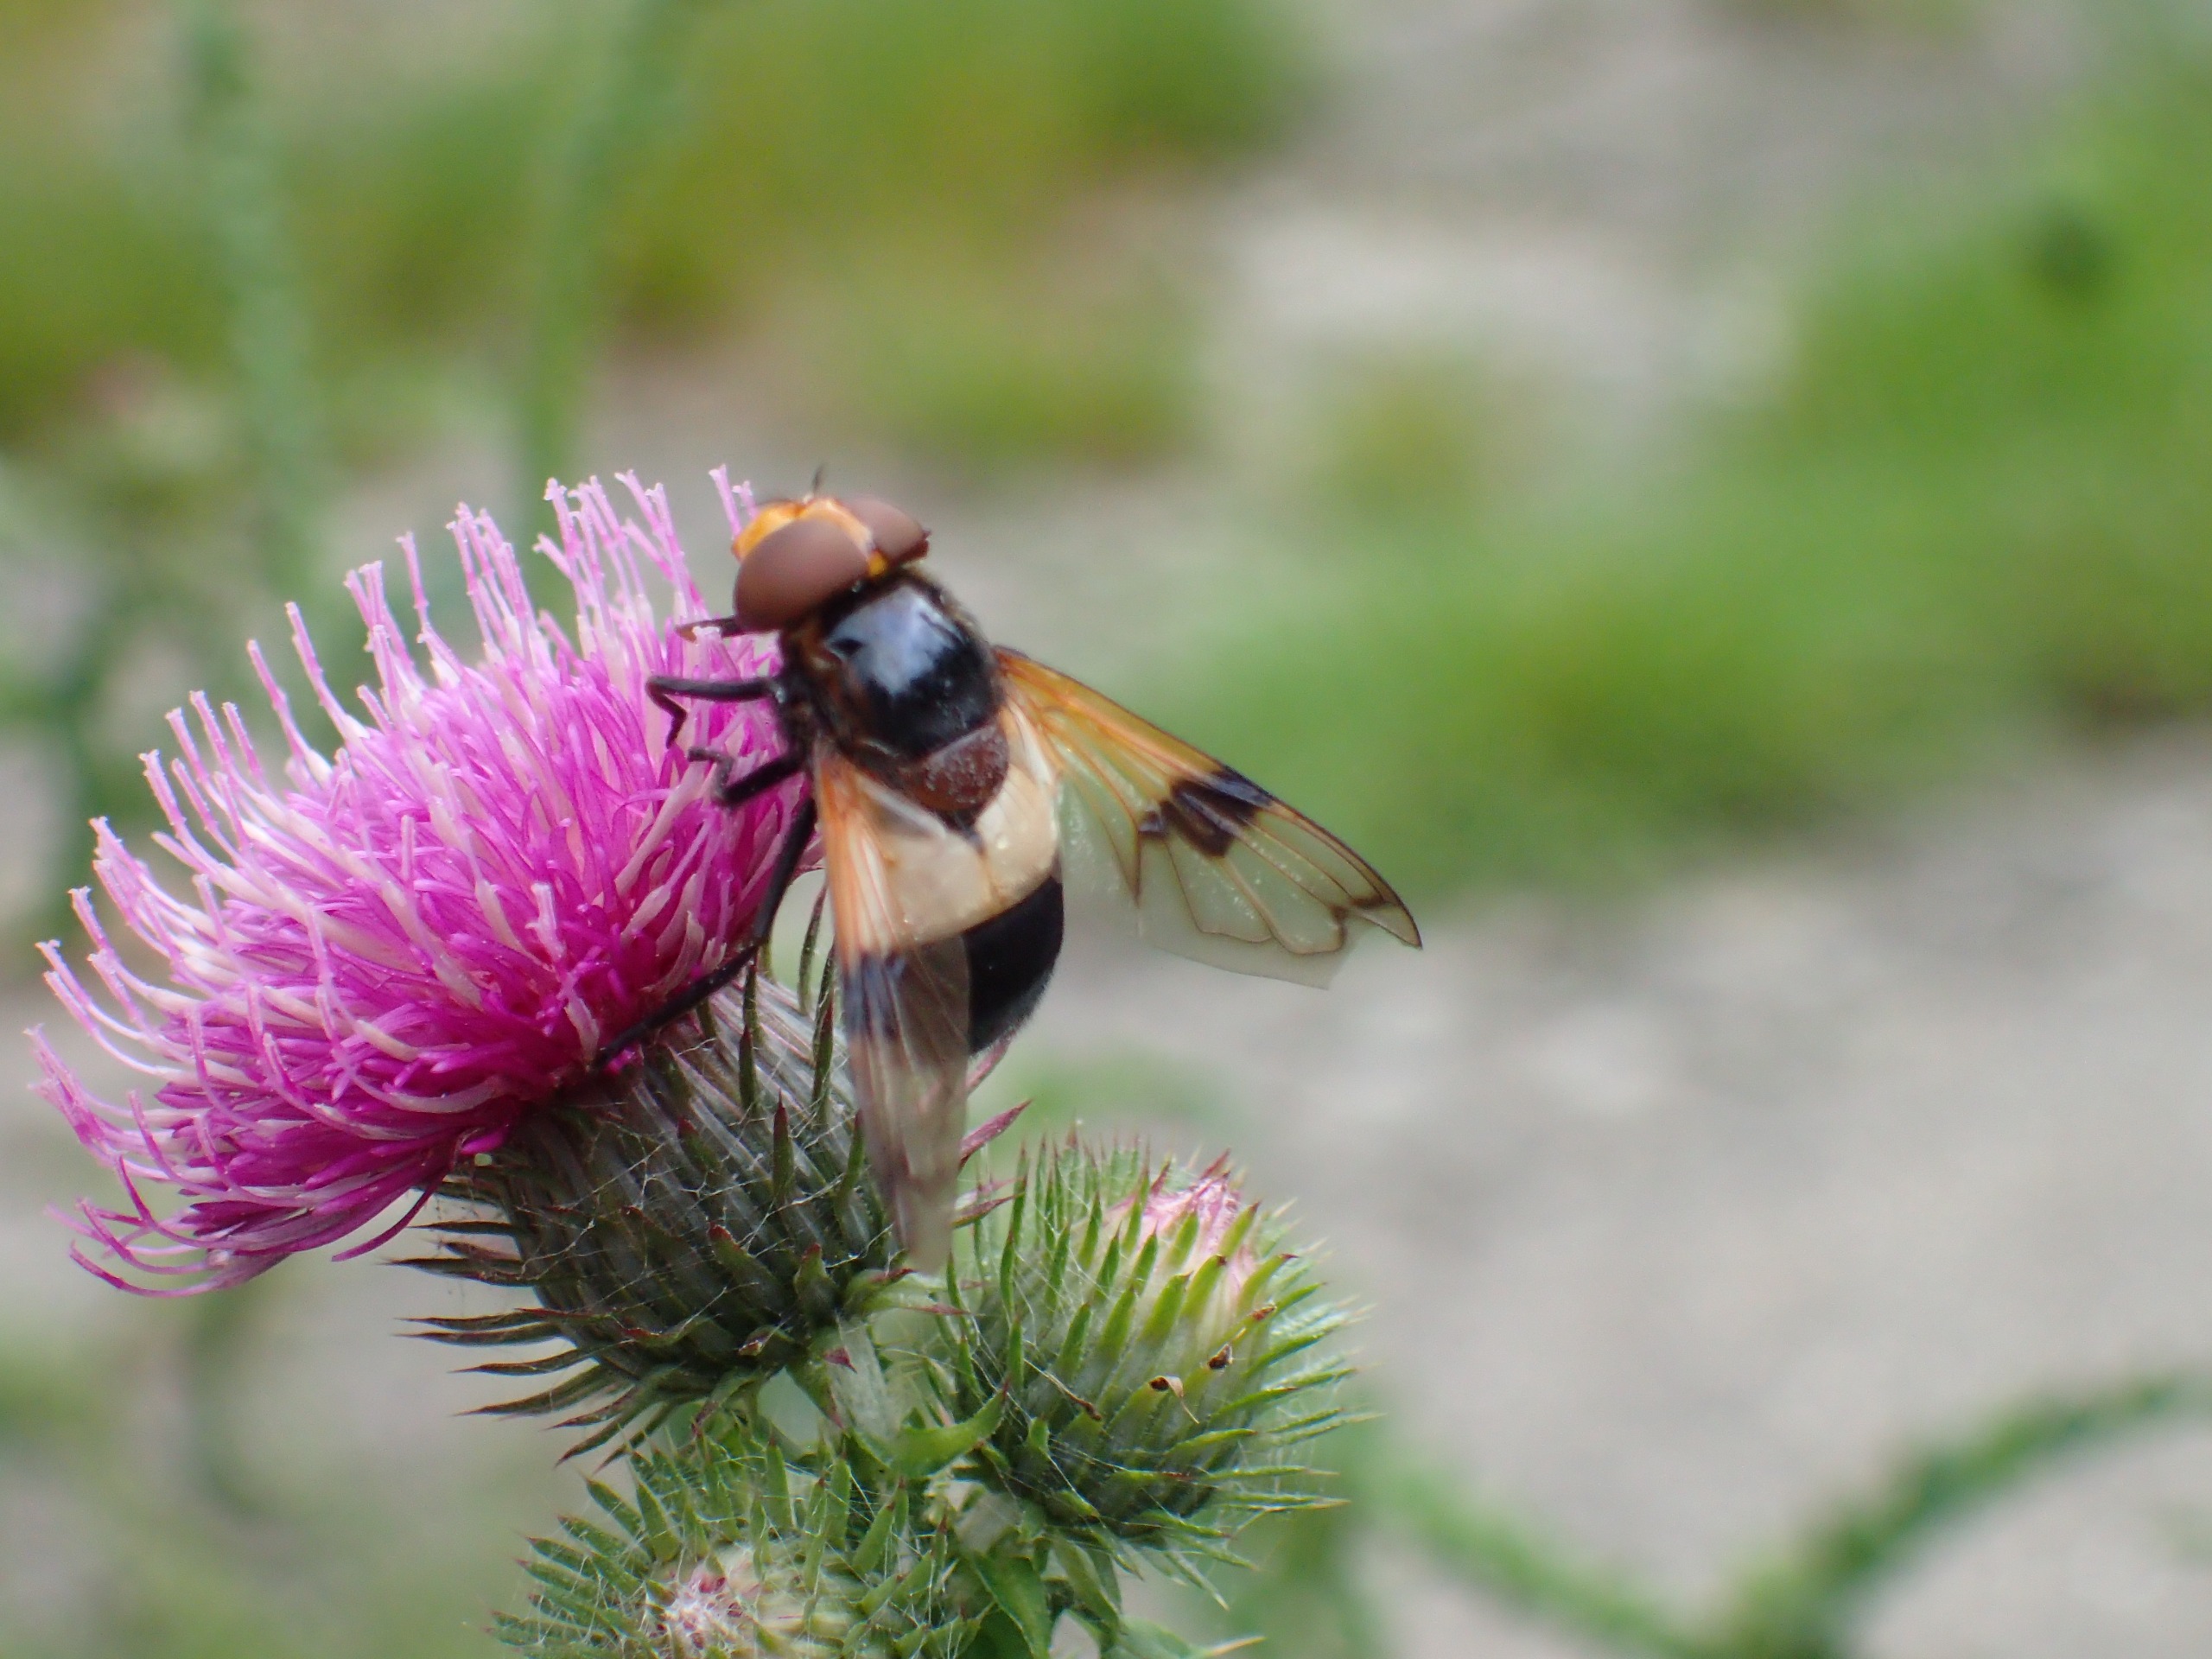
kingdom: Animalia
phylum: Arthropoda
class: Insecta
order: Diptera
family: Syrphidae
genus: Volucella
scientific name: Volucella pellucens
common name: Hvidbåndet humlesvirreflue
